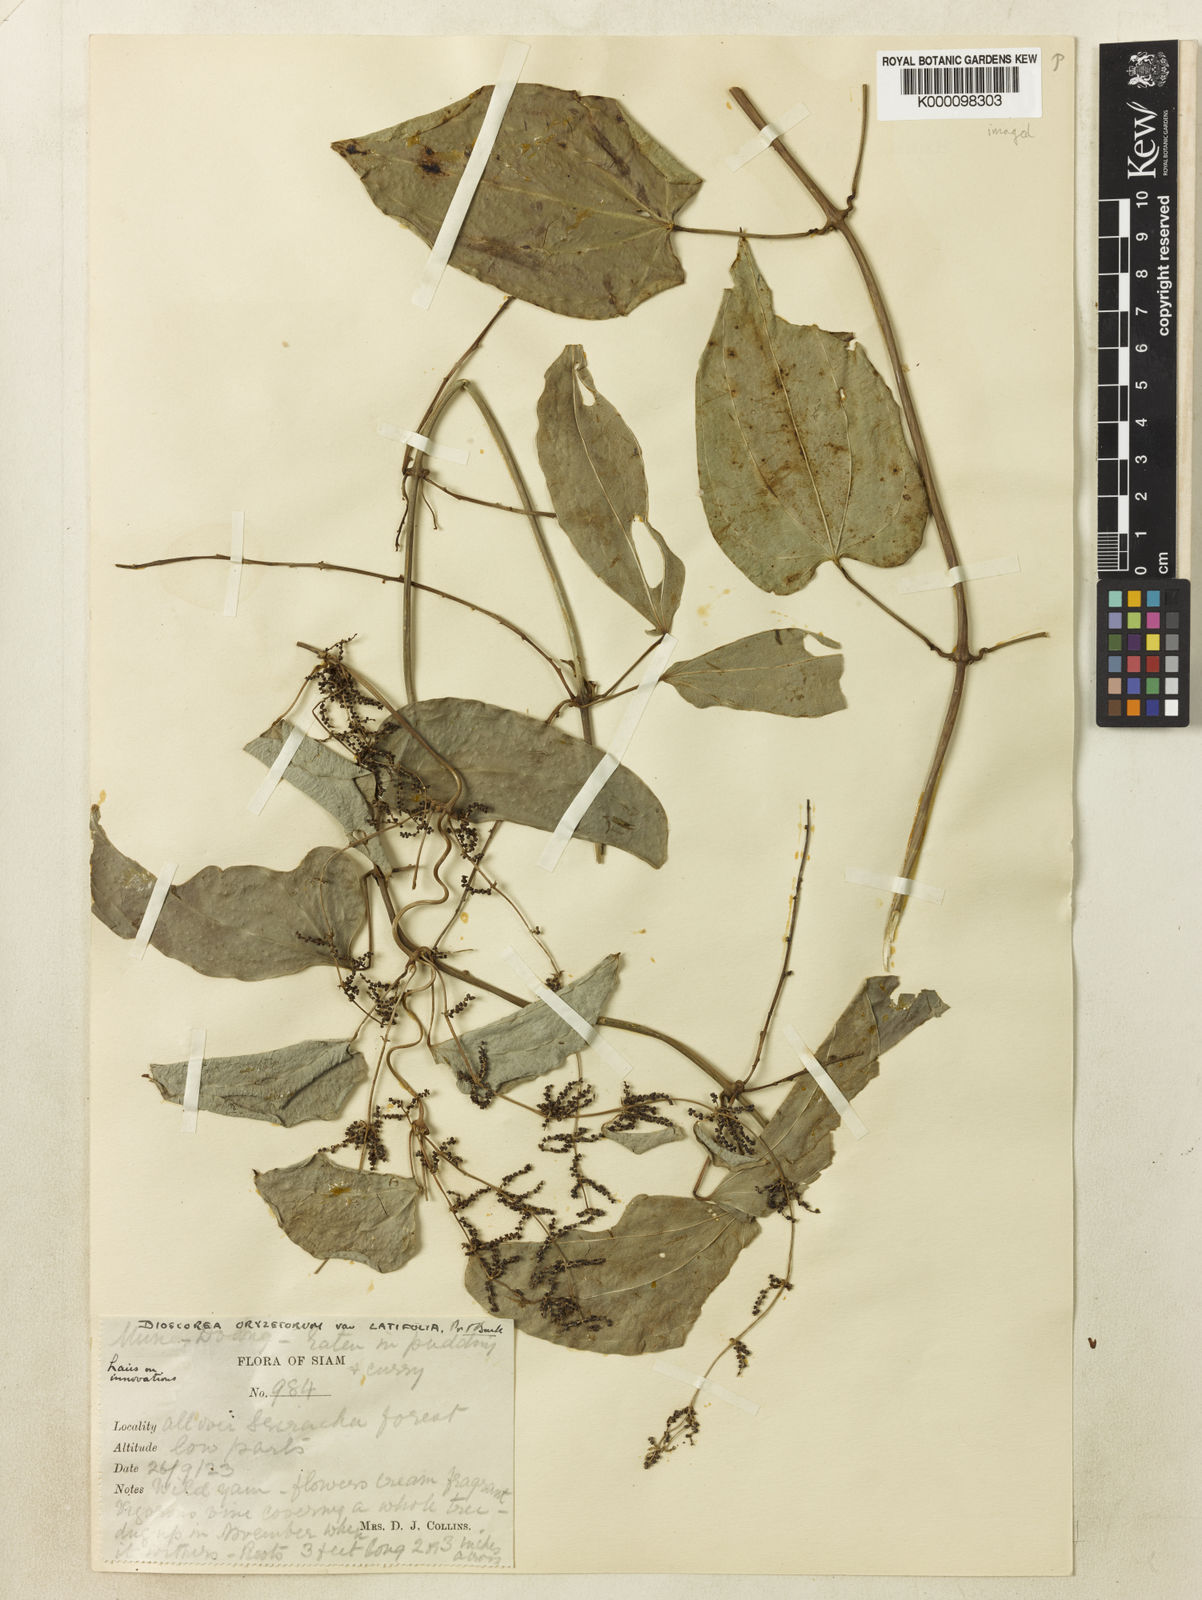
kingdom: Plantae
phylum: Tracheophyta
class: Liliopsida
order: Dioscoreales
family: Dioscoreaceae
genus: Dioscorea
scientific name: Dioscorea oryzetorum
